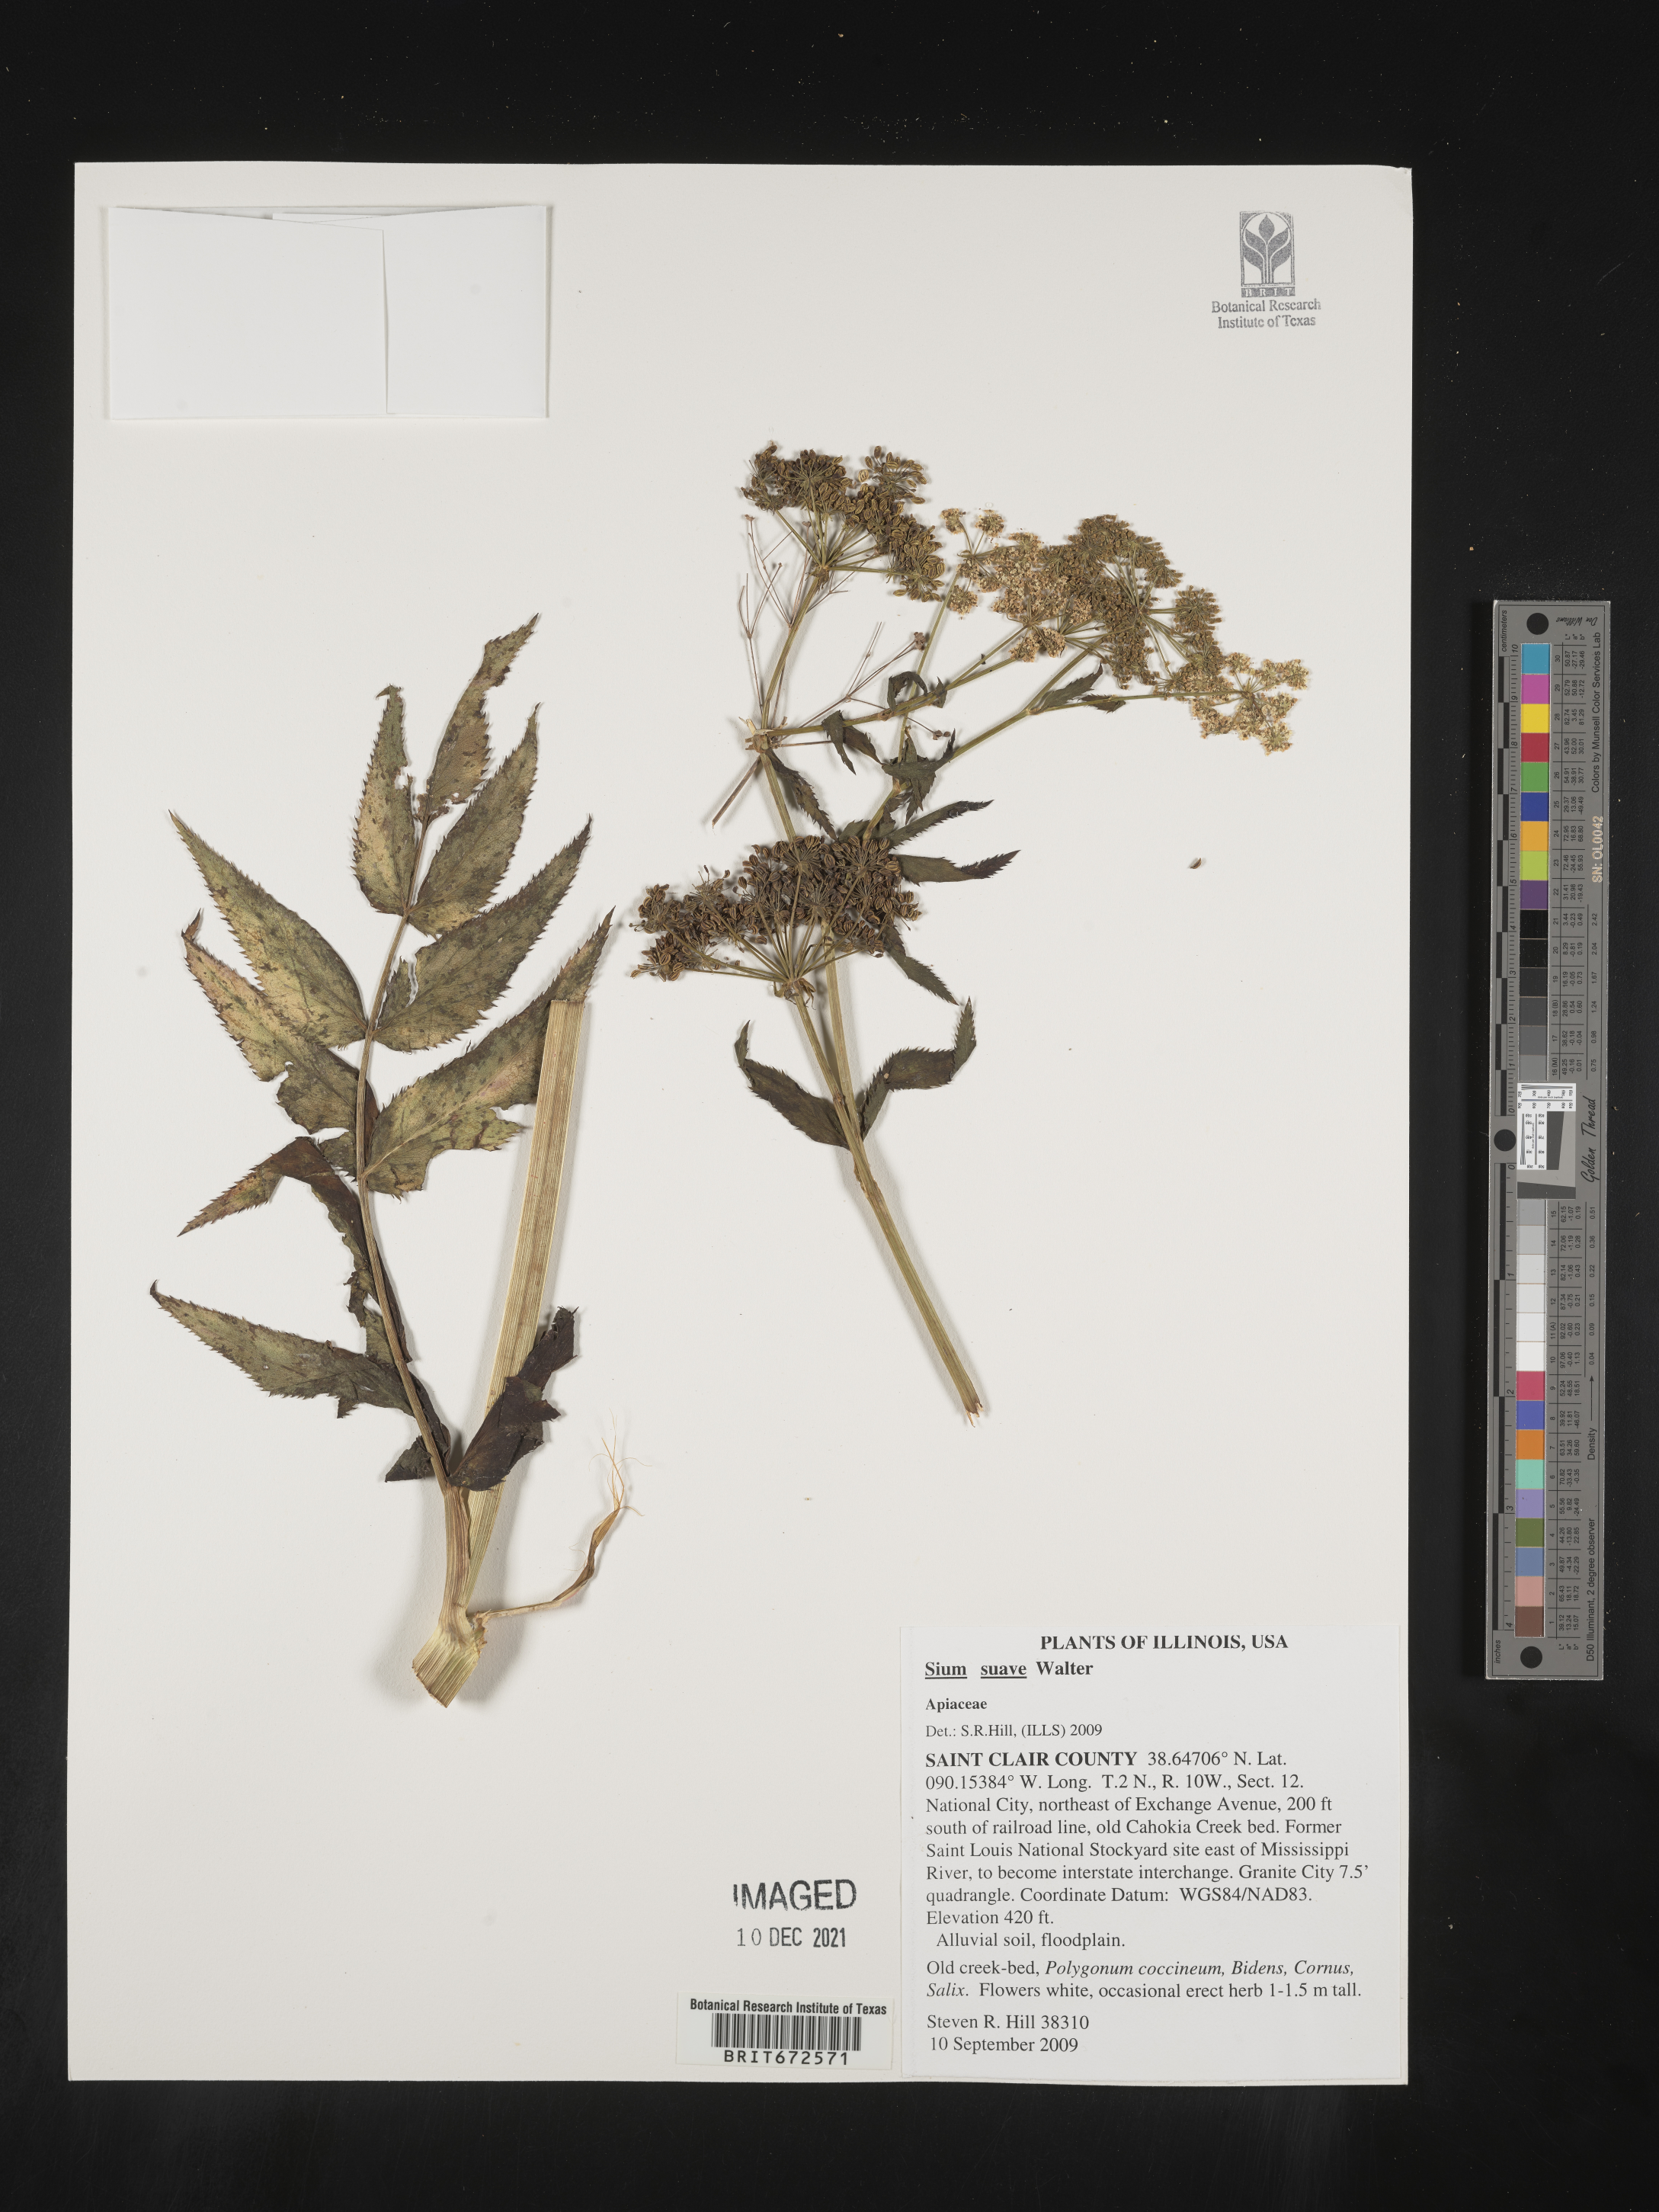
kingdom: Plantae
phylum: Tracheophyta
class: Magnoliopsida
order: Apiales
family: Apiaceae
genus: Sium
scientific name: Sium suave
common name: Hemlock water-parsnip
